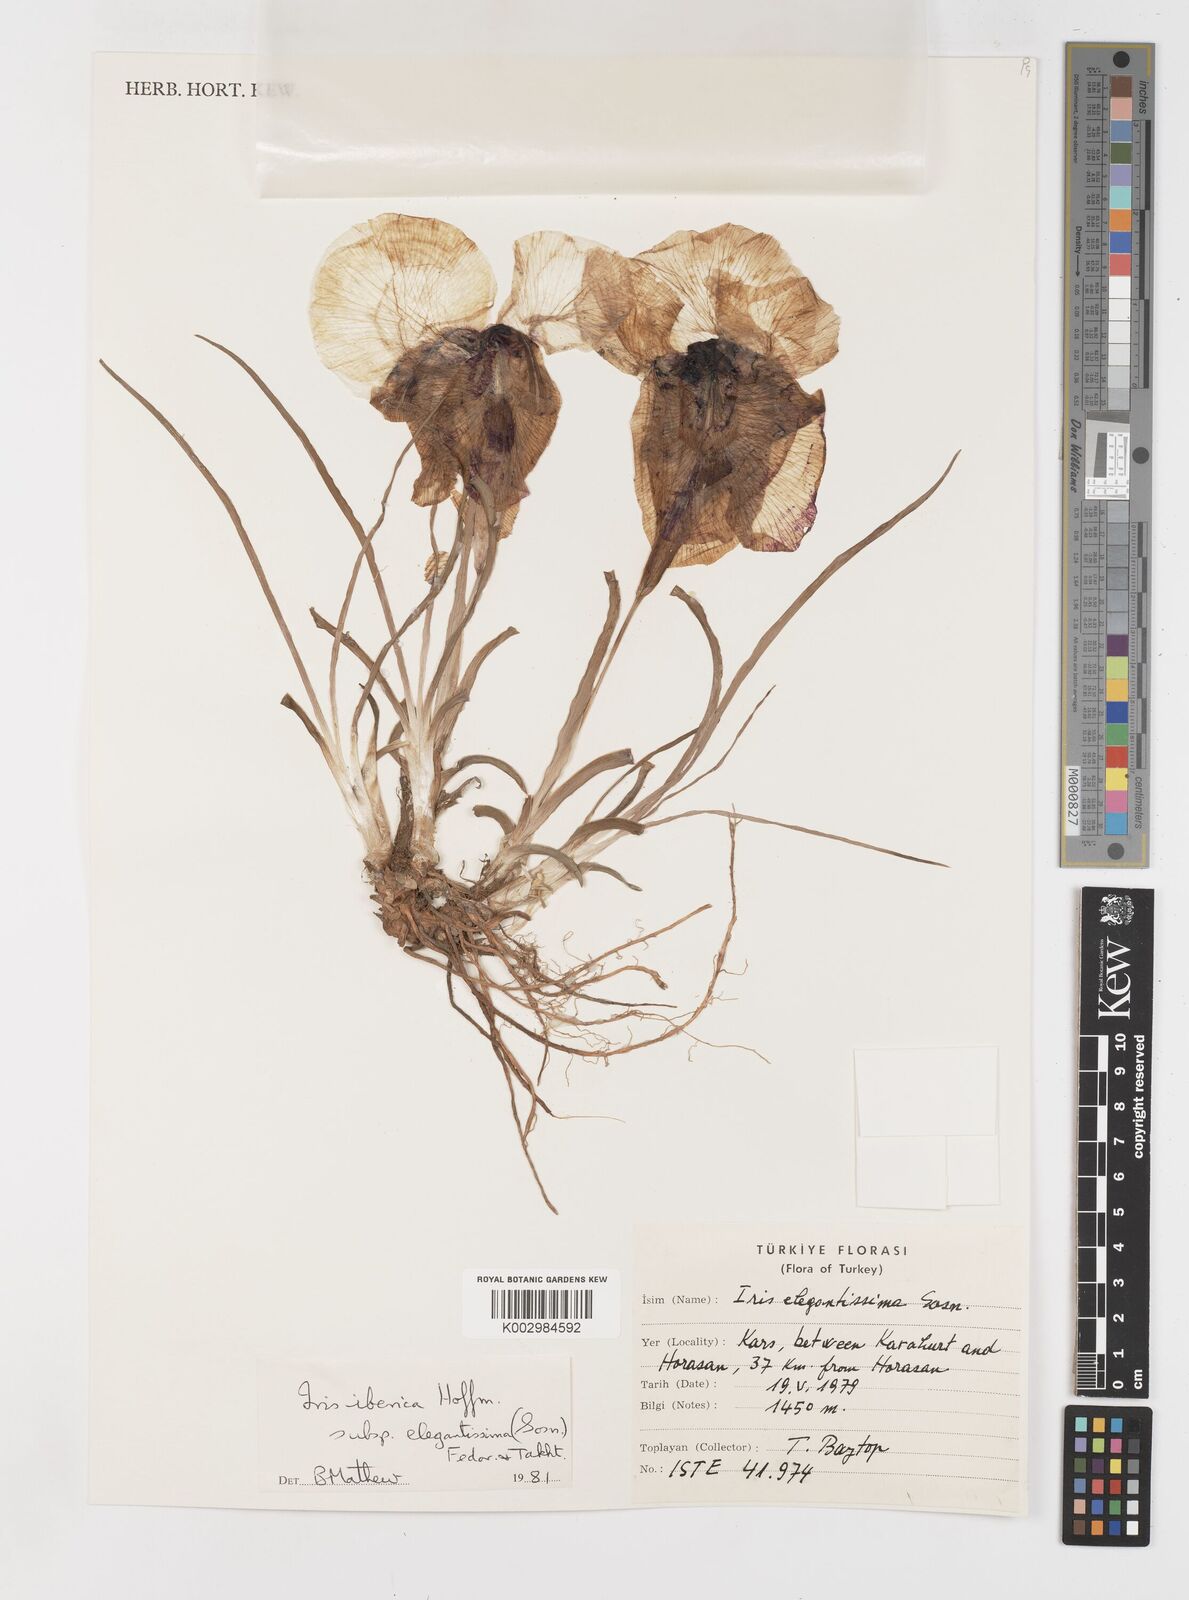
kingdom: Plantae
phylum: Tracheophyta
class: Liliopsida
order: Asparagales
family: Iridaceae
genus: Iris
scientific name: Iris iberica
